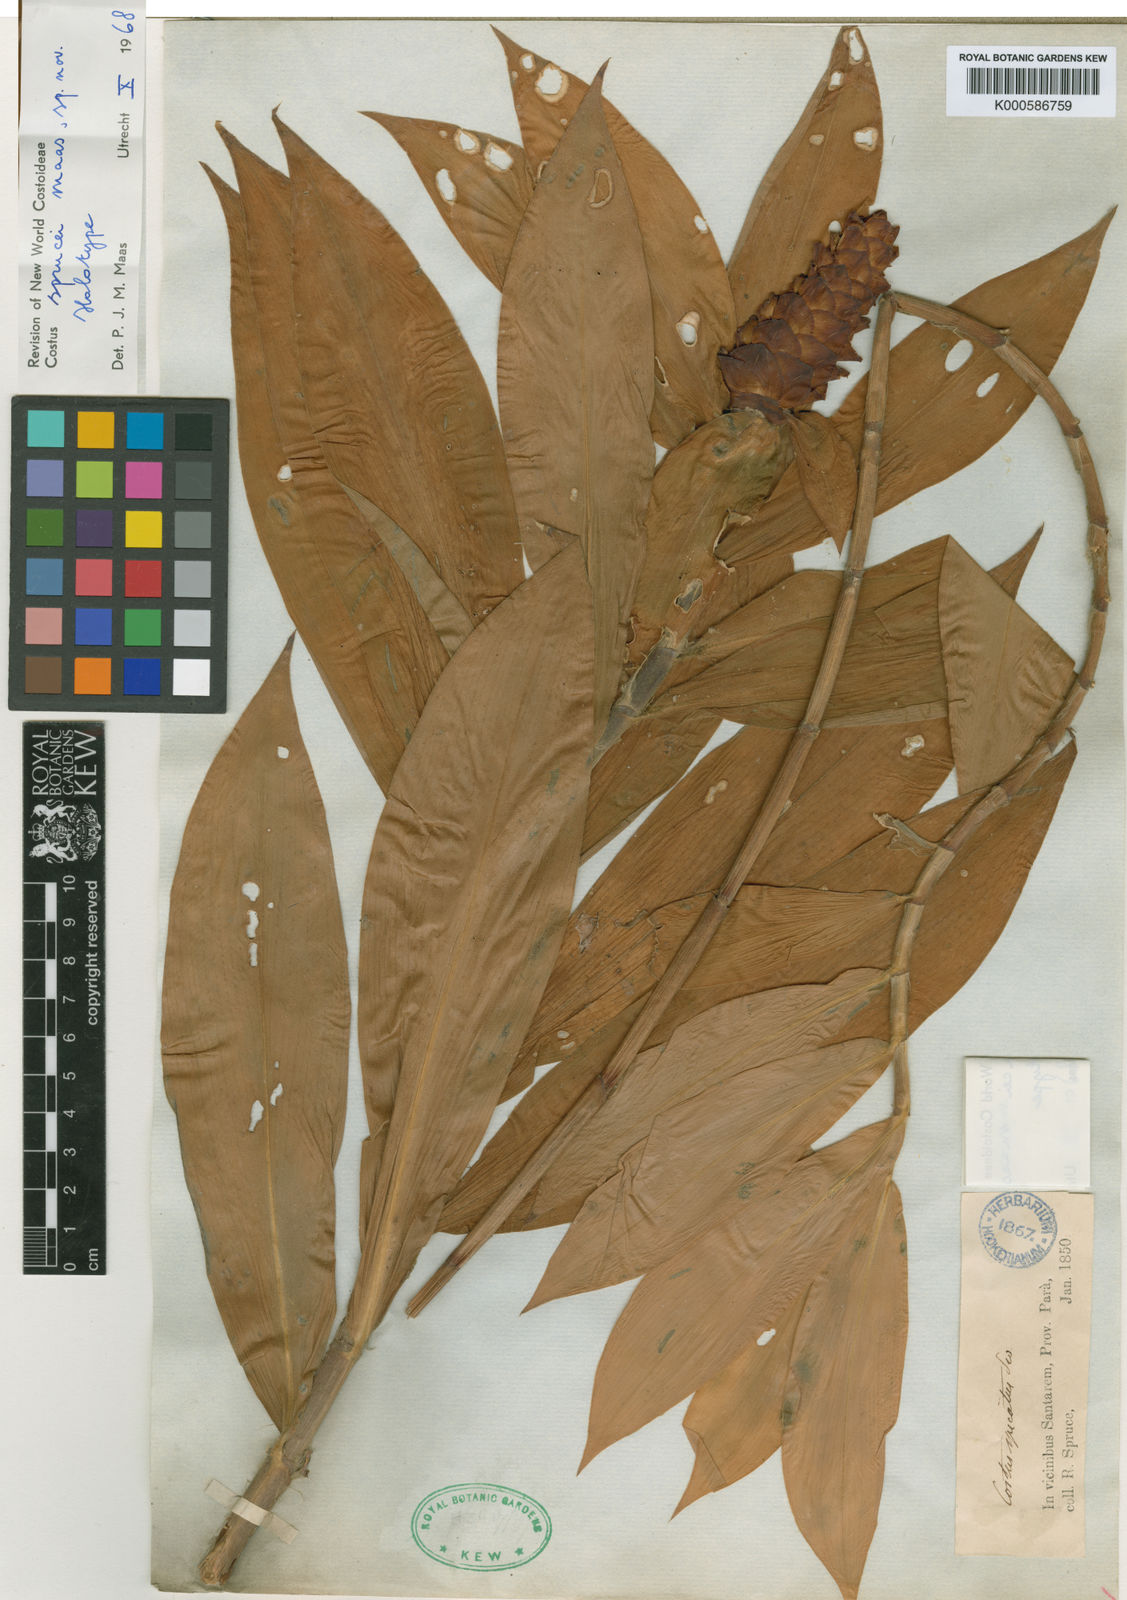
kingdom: Plantae
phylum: Tracheophyta
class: Liliopsida
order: Zingiberales
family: Costaceae
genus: Costus
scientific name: Costus sprucei
